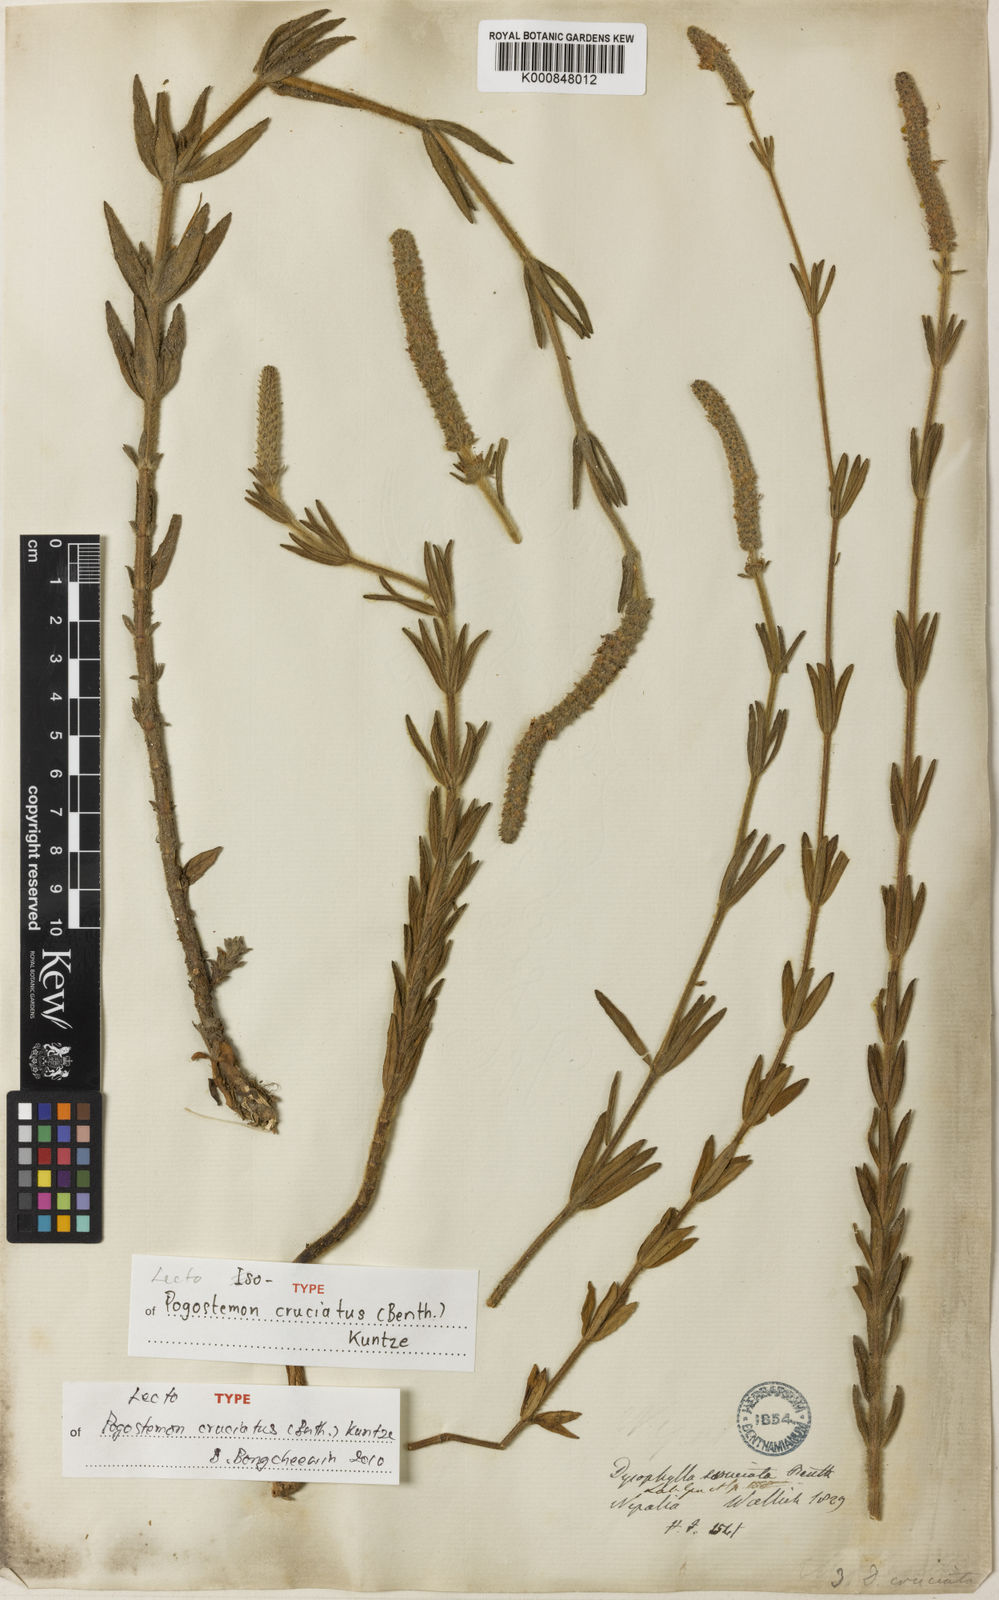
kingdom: Plantae
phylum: Tracheophyta
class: Magnoliopsida
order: Lamiales
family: Lamiaceae
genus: Pogostemon
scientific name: Pogostemon cruciatus
